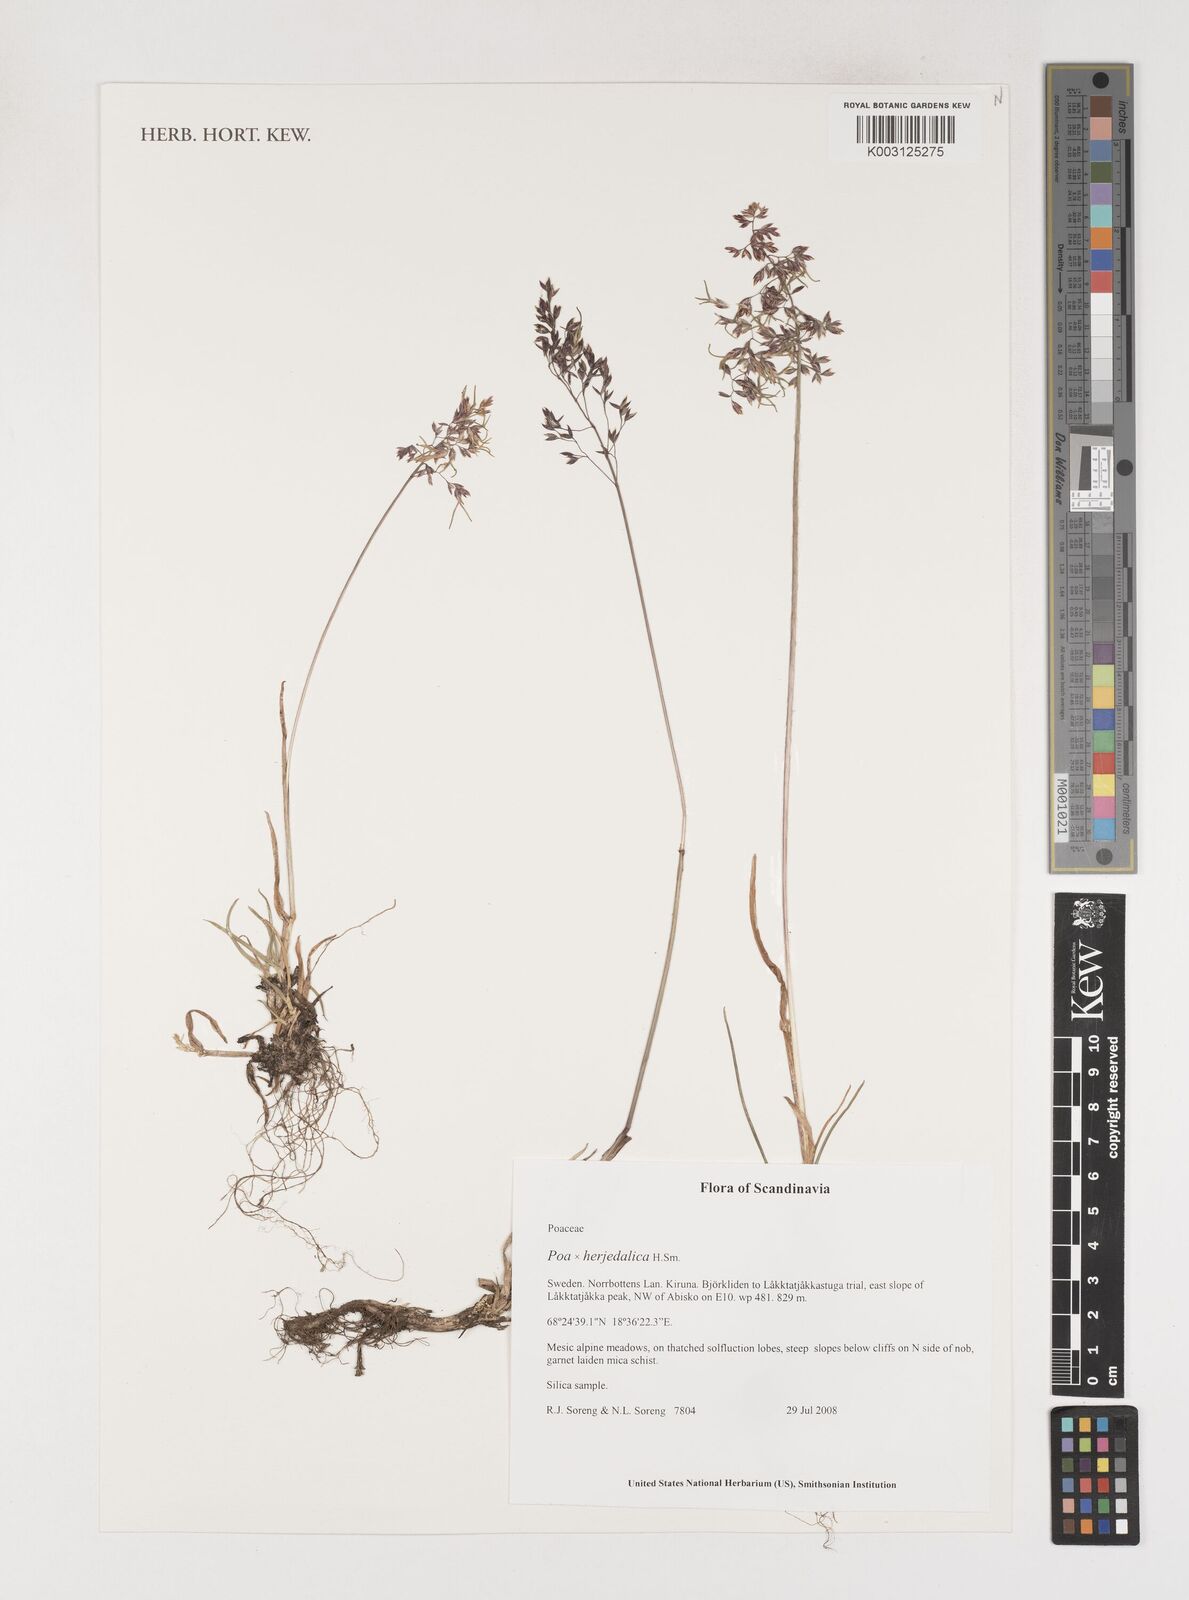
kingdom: Plantae
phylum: Tracheophyta
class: Liliopsida
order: Poales
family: Poaceae
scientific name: Poaceae
